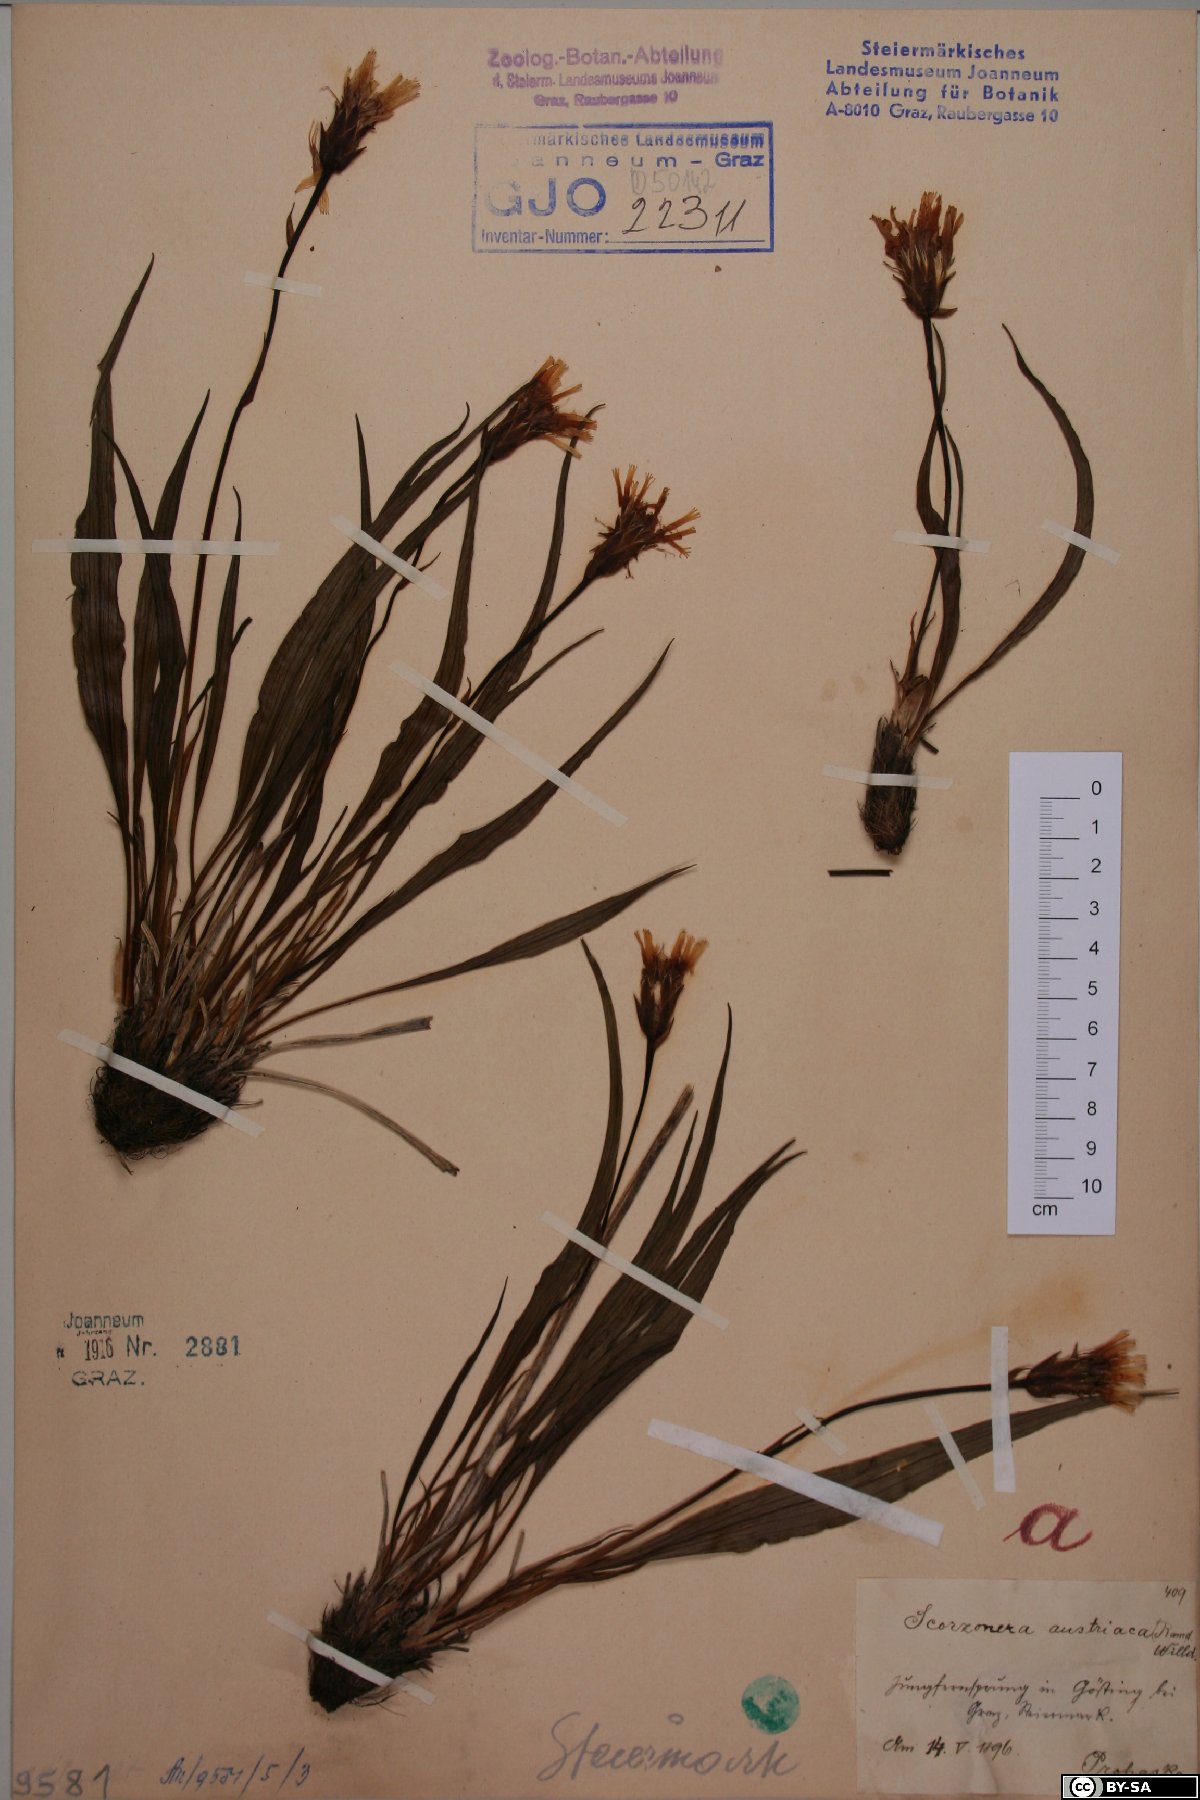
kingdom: Plantae
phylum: Tracheophyta
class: Magnoliopsida
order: Asterales
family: Asteraceae
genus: Takhtajaniantha
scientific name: Takhtajaniantha austriaca
